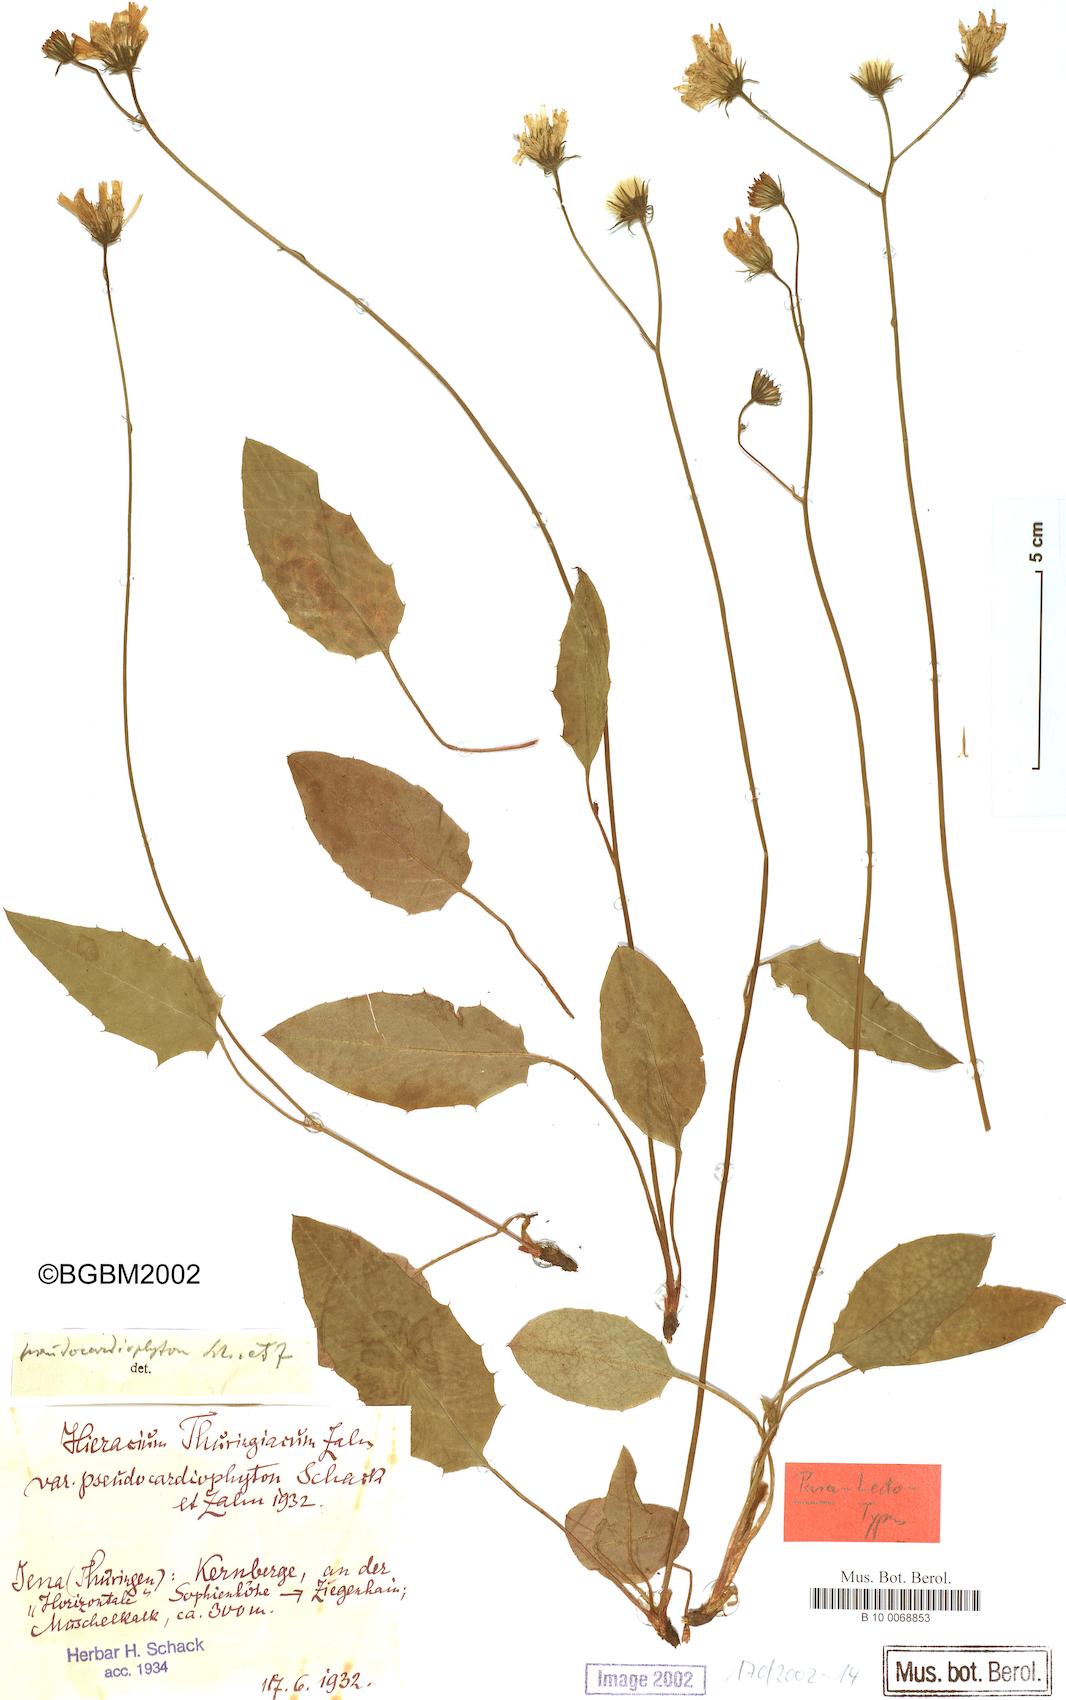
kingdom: Plantae
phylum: Tracheophyta
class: Magnoliopsida
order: Asterales
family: Asteraceae
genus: Hieracium
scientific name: Hieracium bifidum
